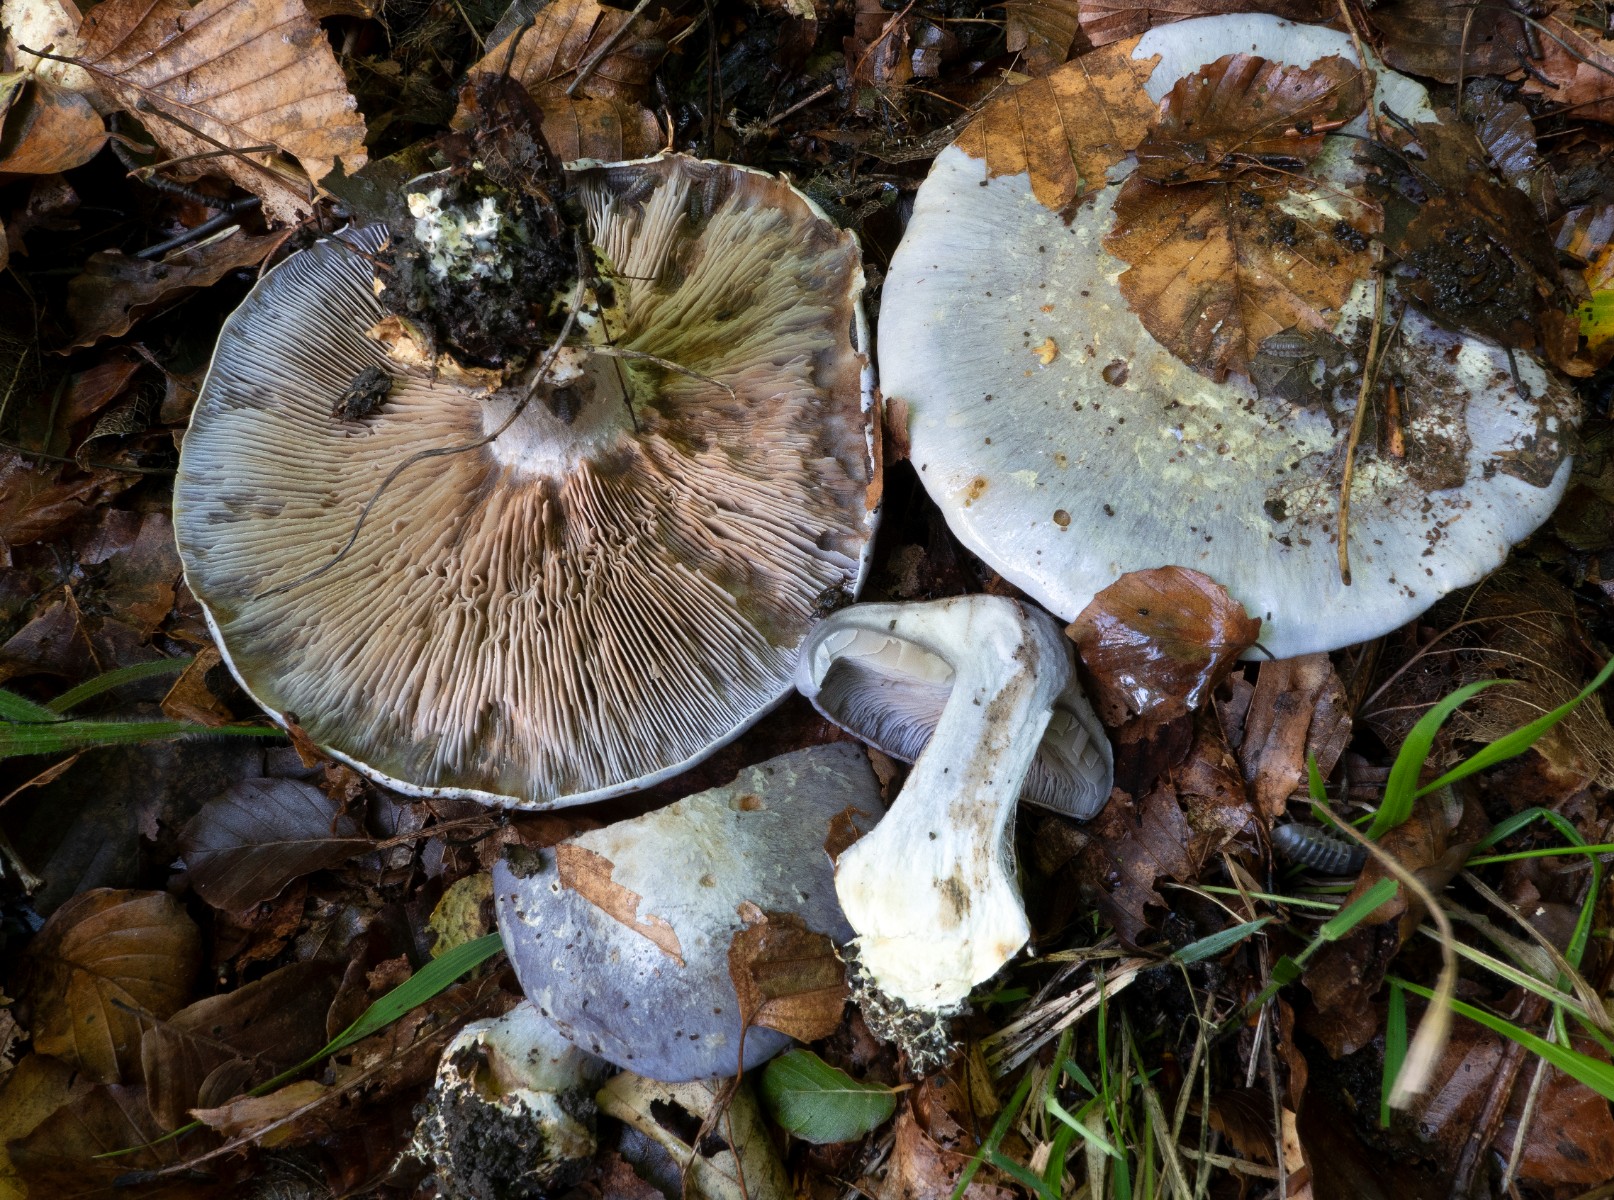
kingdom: Fungi
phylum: Basidiomycota
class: Agaricomycetes
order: Agaricales
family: Cortinariaceae
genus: Cortinarius
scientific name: Cortinarius caerulescens
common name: blåkødet slørhat
